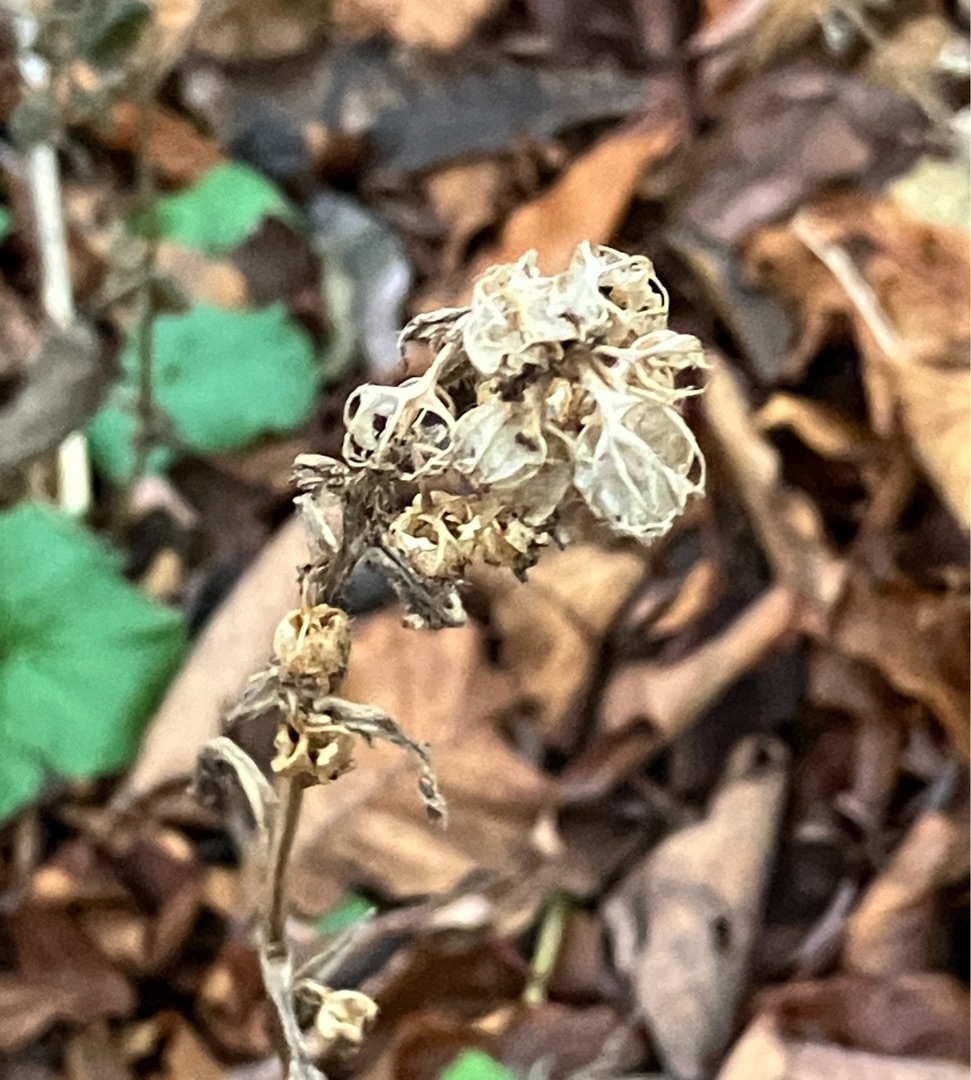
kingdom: Plantae
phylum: Tracheophyta
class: Magnoliopsida
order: Rosales
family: Rosaceae
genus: Geum
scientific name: Geum urbanum
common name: Feber-nellikerod
